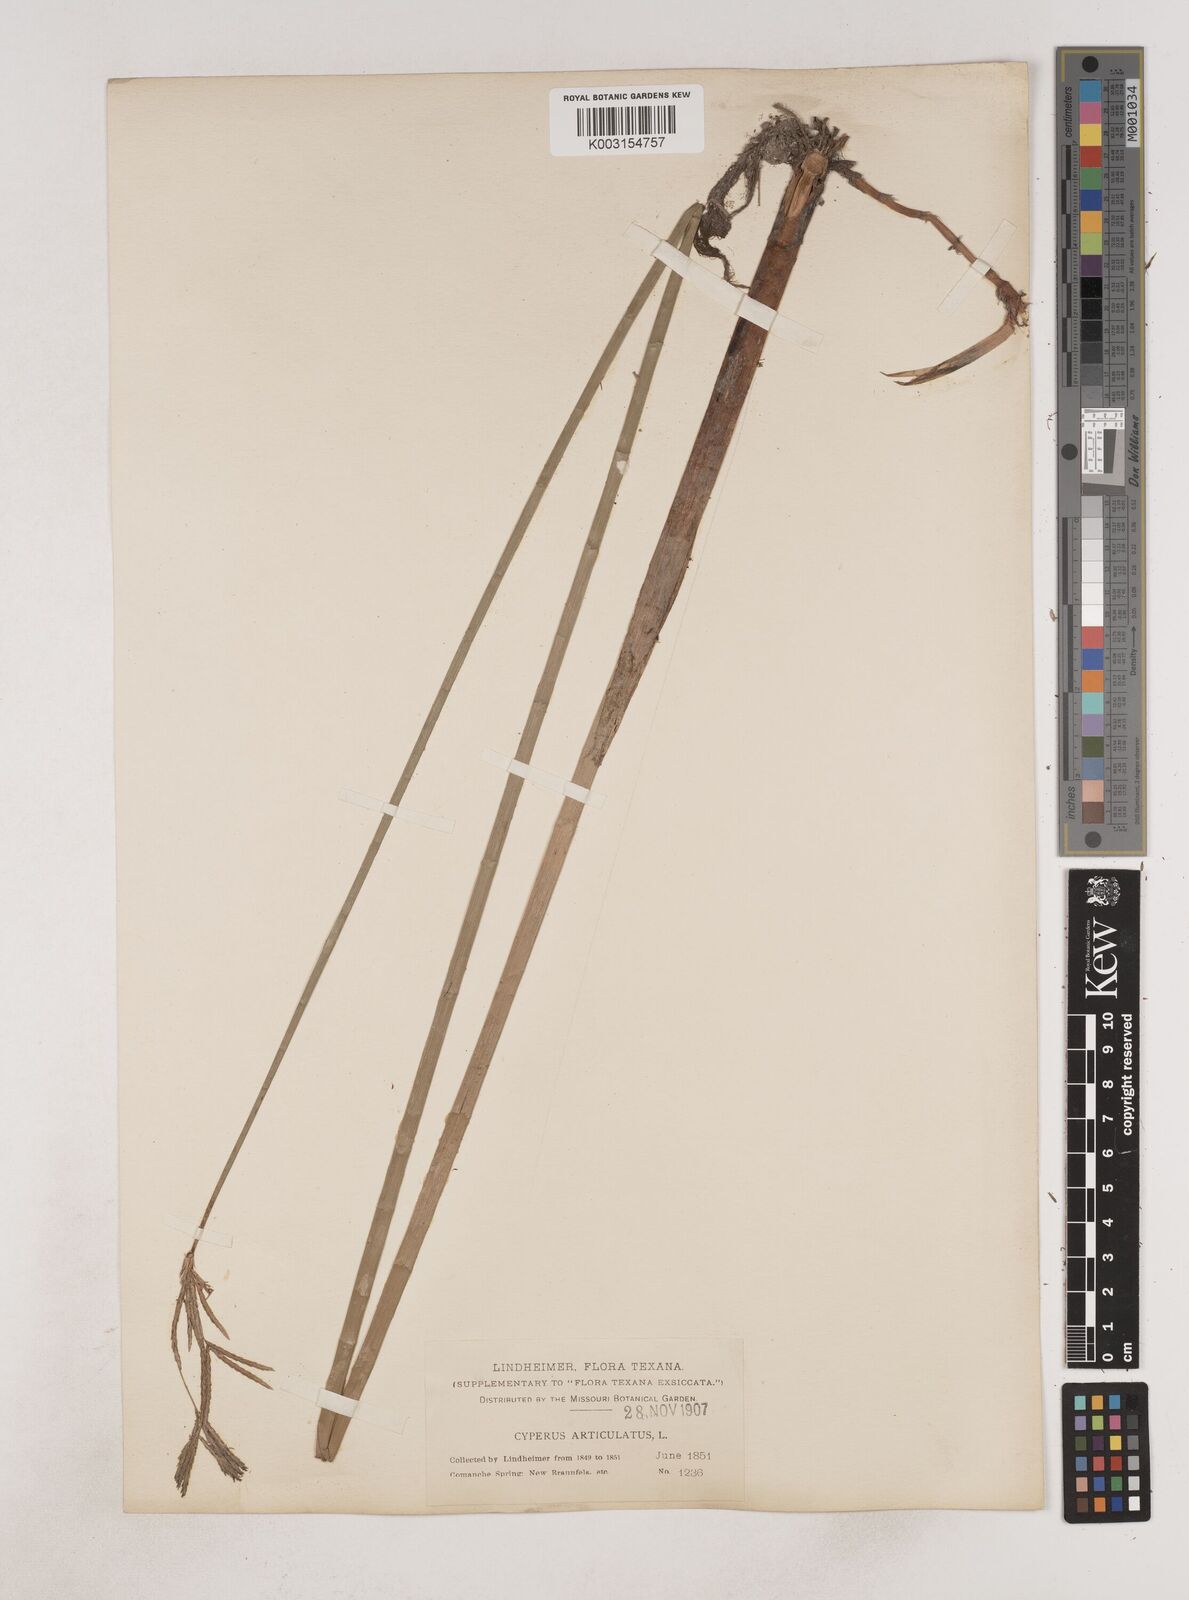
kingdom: Plantae
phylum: Tracheophyta
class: Liliopsida
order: Poales
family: Cyperaceae
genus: Cyperus
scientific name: Cyperus articulatus
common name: Jointed flatsedge
